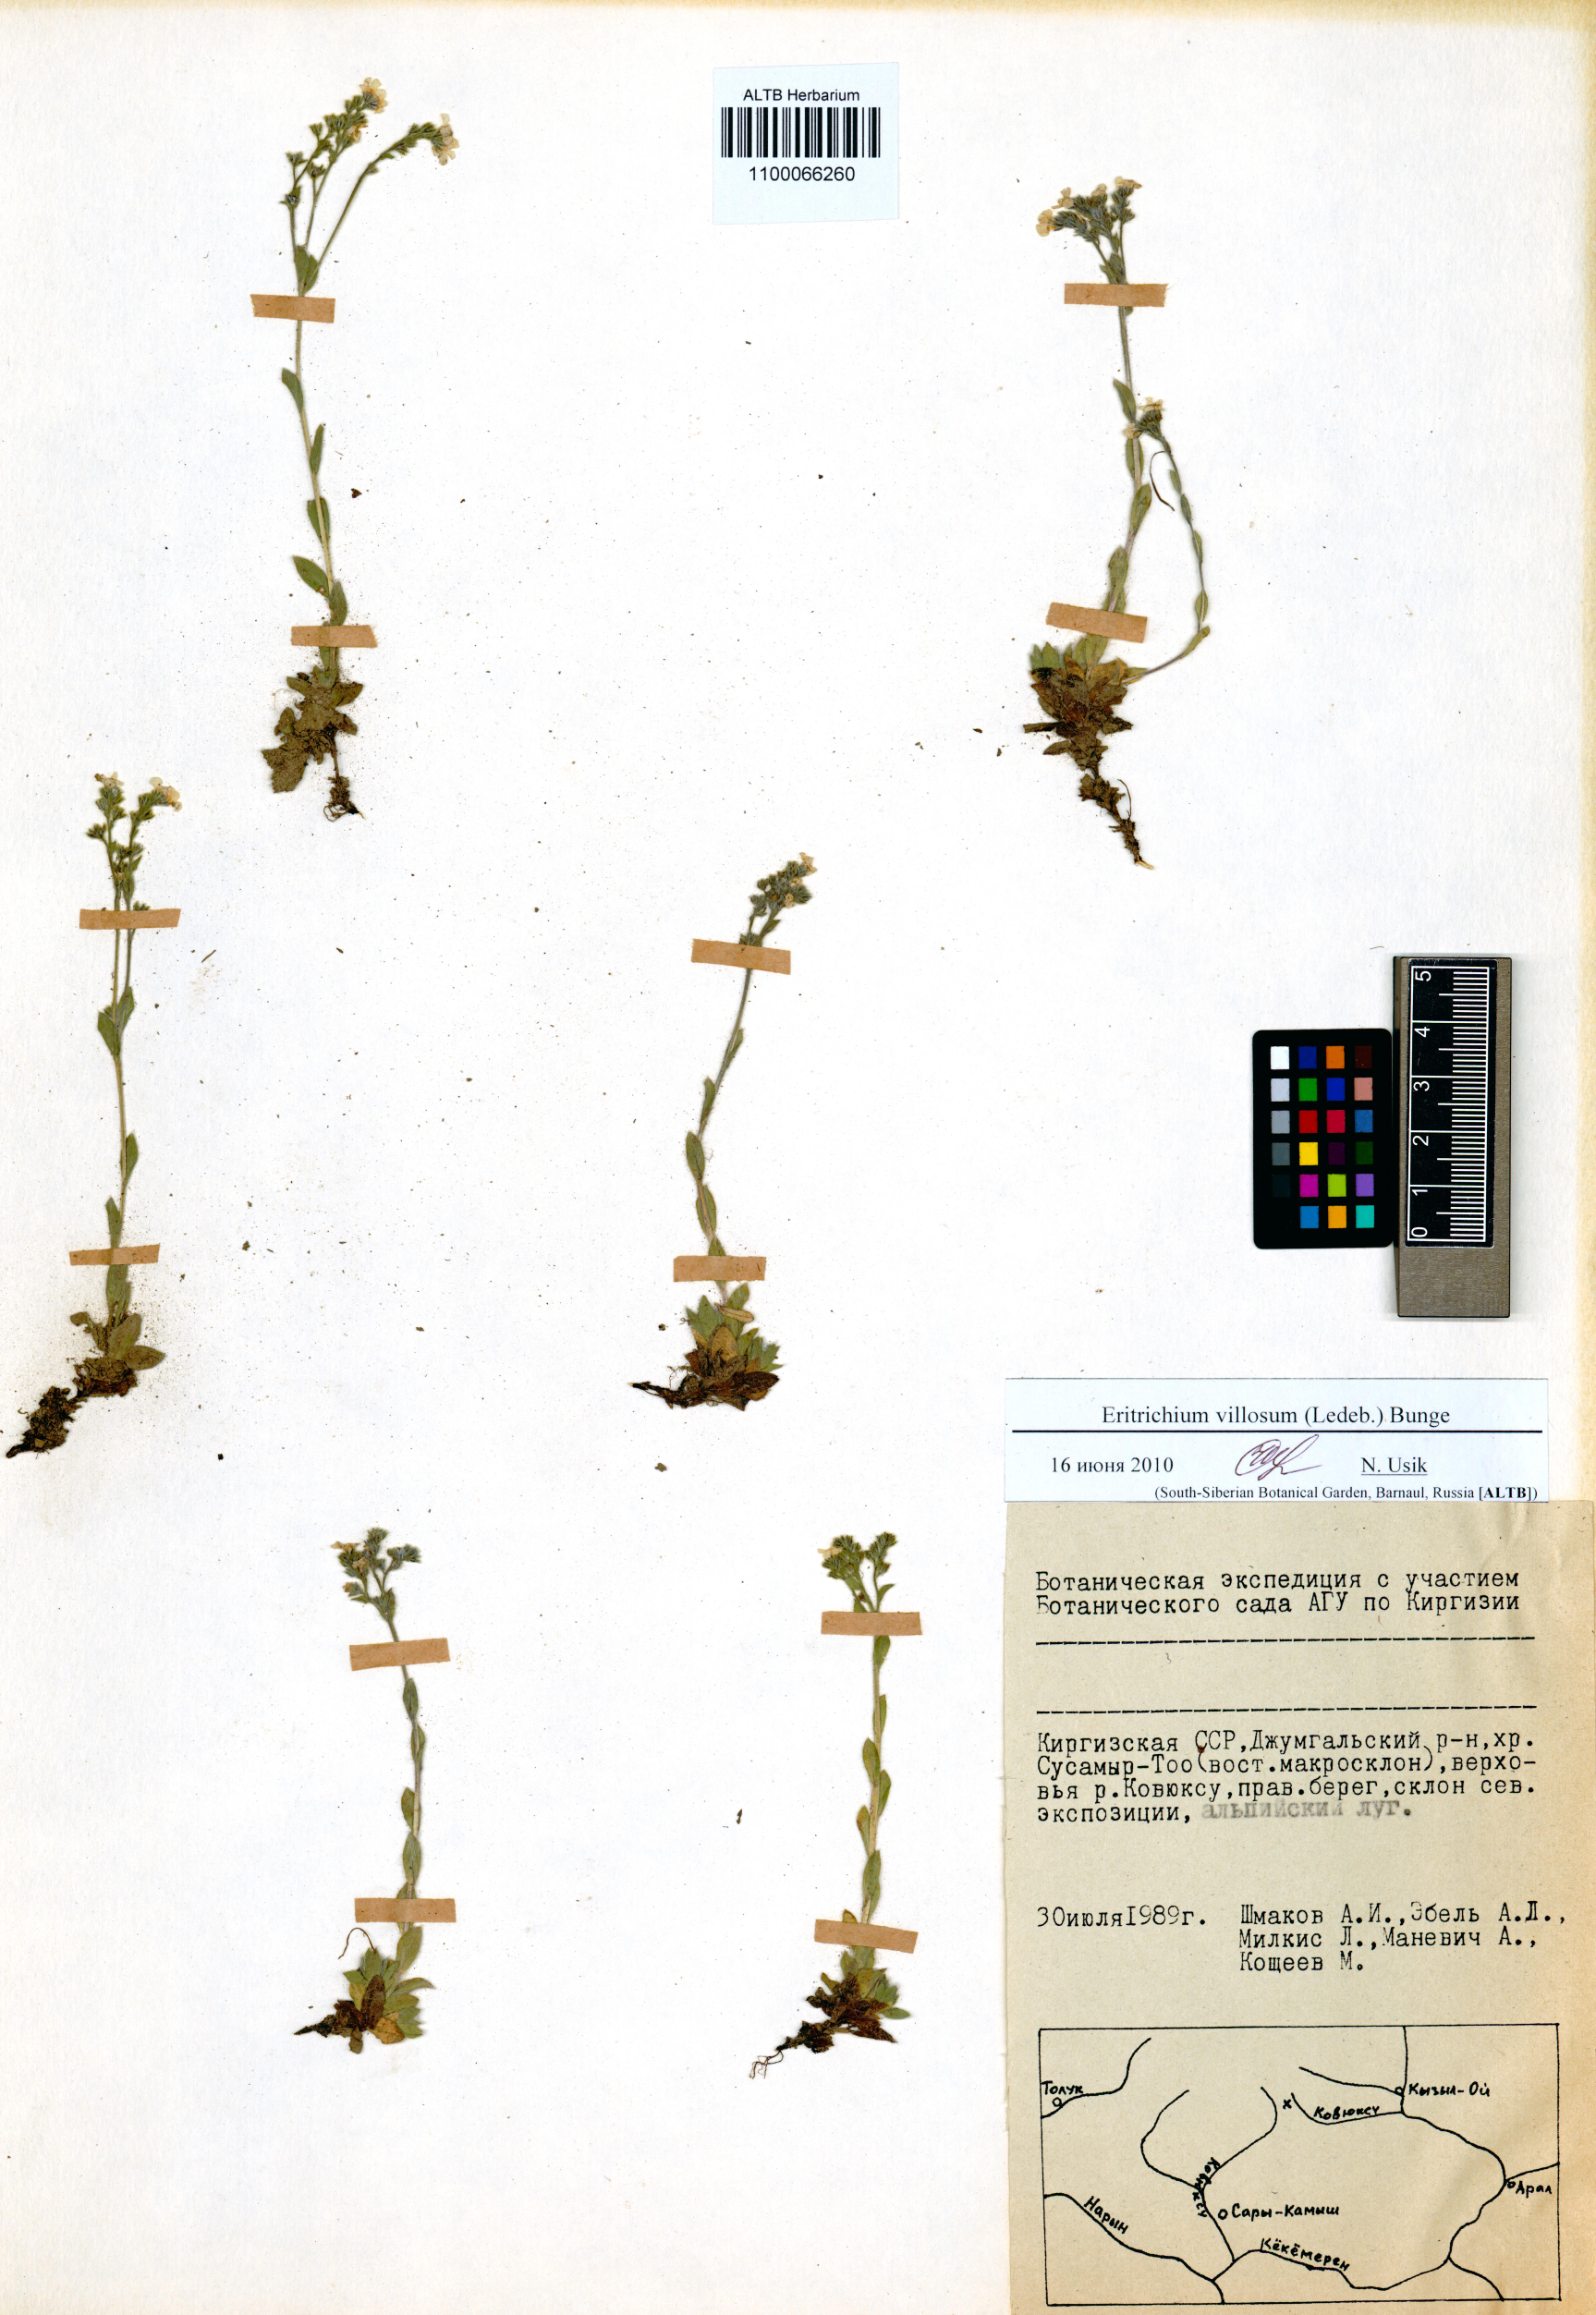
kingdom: Plantae
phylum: Tracheophyta
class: Magnoliopsida
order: Boraginales
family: Boraginaceae
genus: Eritrichium
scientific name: Eritrichium villosum
